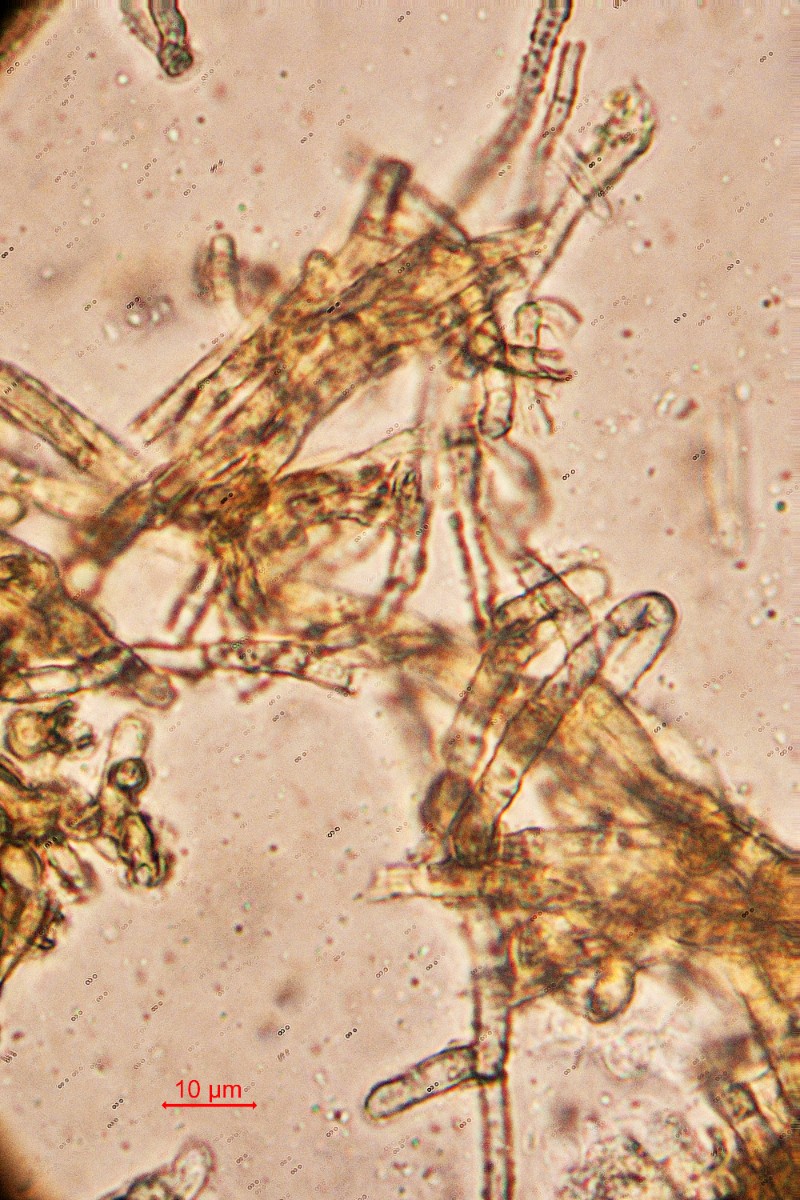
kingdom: Fungi
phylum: Ascomycota
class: Dothideomycetes
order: Mycosphaerellales
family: Mycosphaerellaceae
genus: Mycosphaerella
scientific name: Mycosphaerella asperulata
